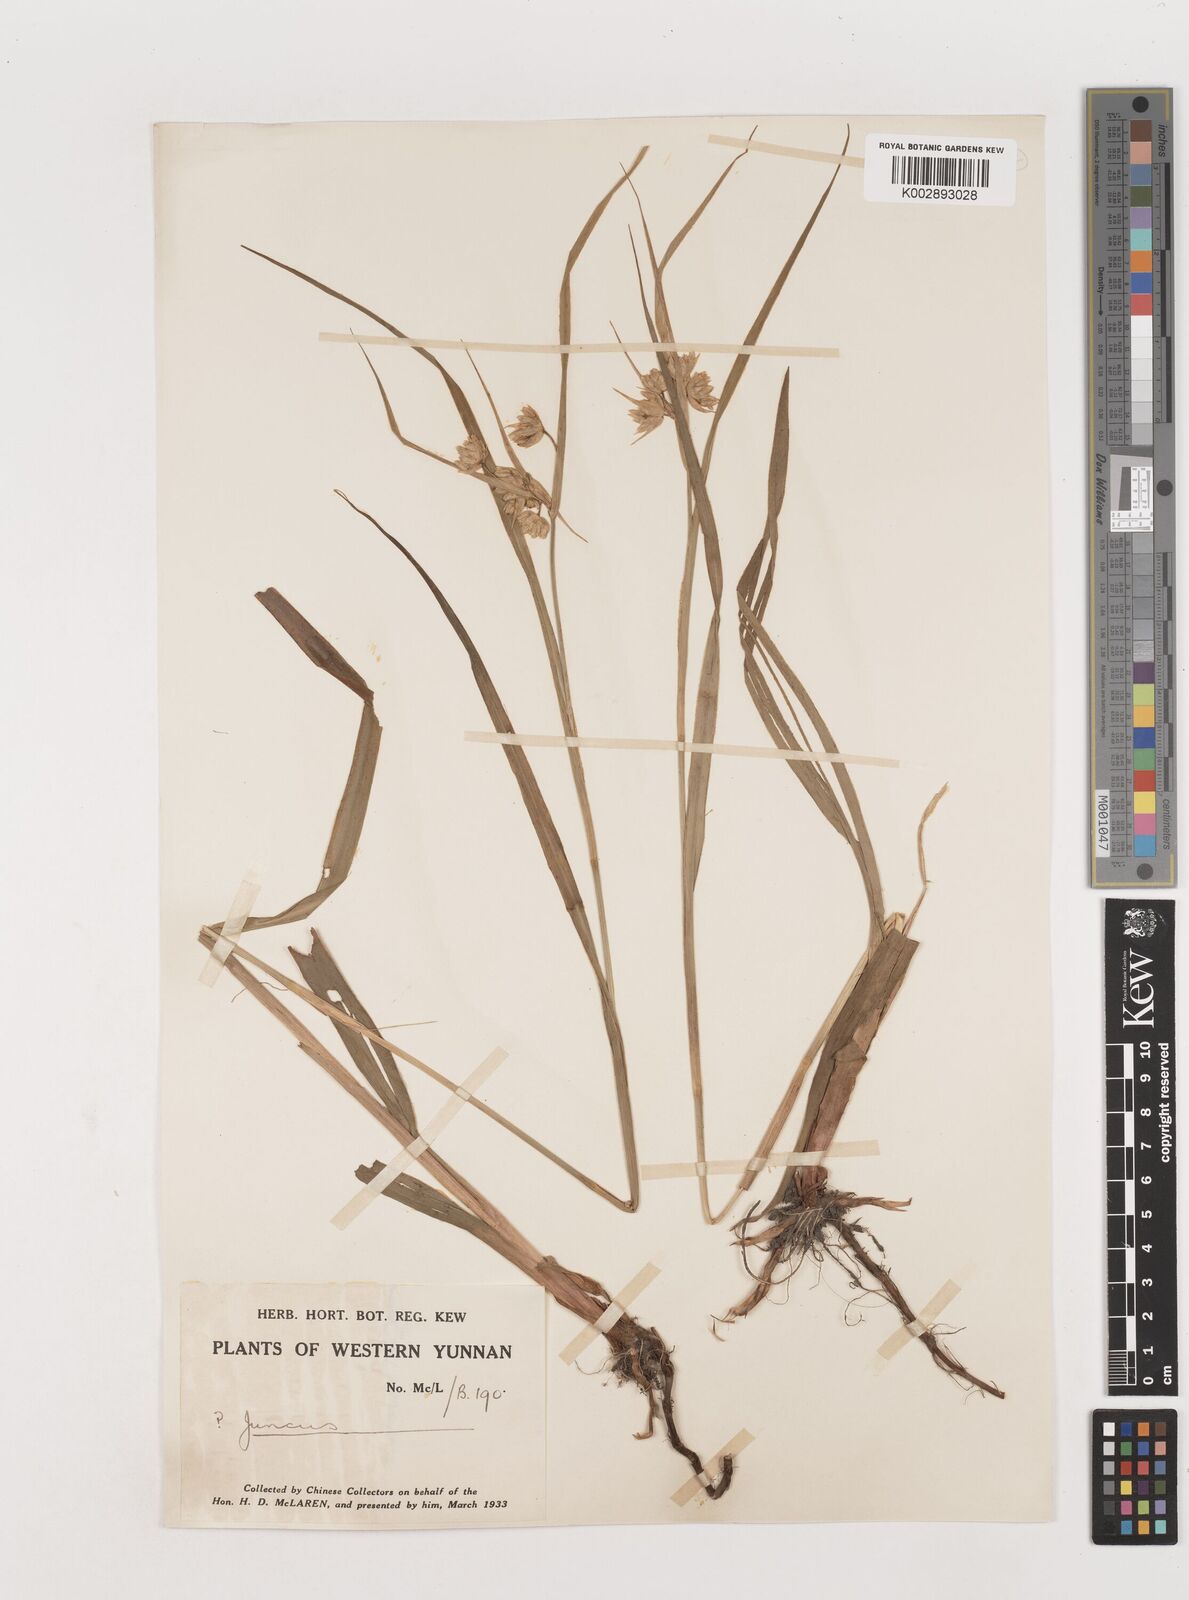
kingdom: Plantae
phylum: Tracheophyta
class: Liliopsida
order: Poales
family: Juncaceae
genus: Juncus
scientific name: Juncus crassistylus
